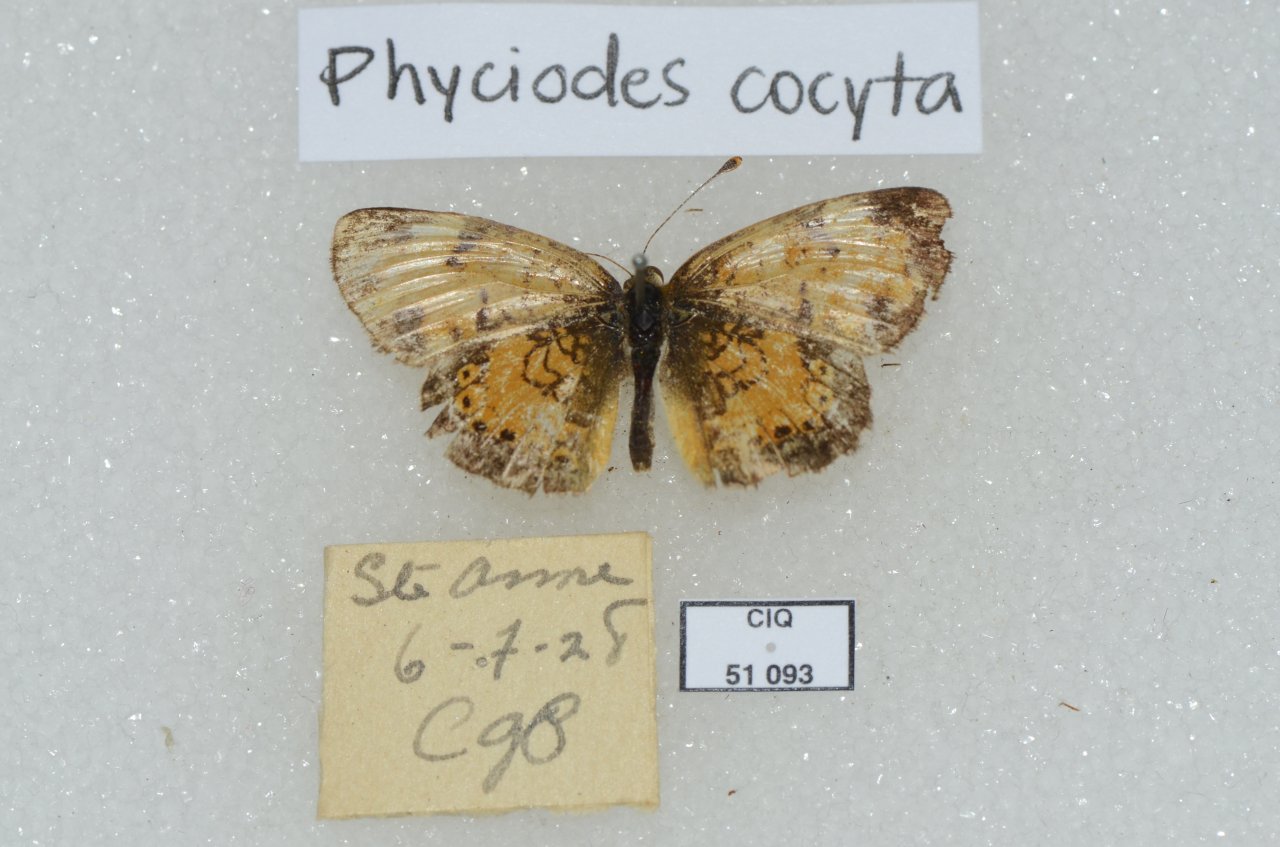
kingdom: Animalia
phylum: Arthropoda
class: Insecta
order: Lepidoptera
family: Nymphalidae
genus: Phyciodes
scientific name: Phyciodes tharos
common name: Northern Crescent
